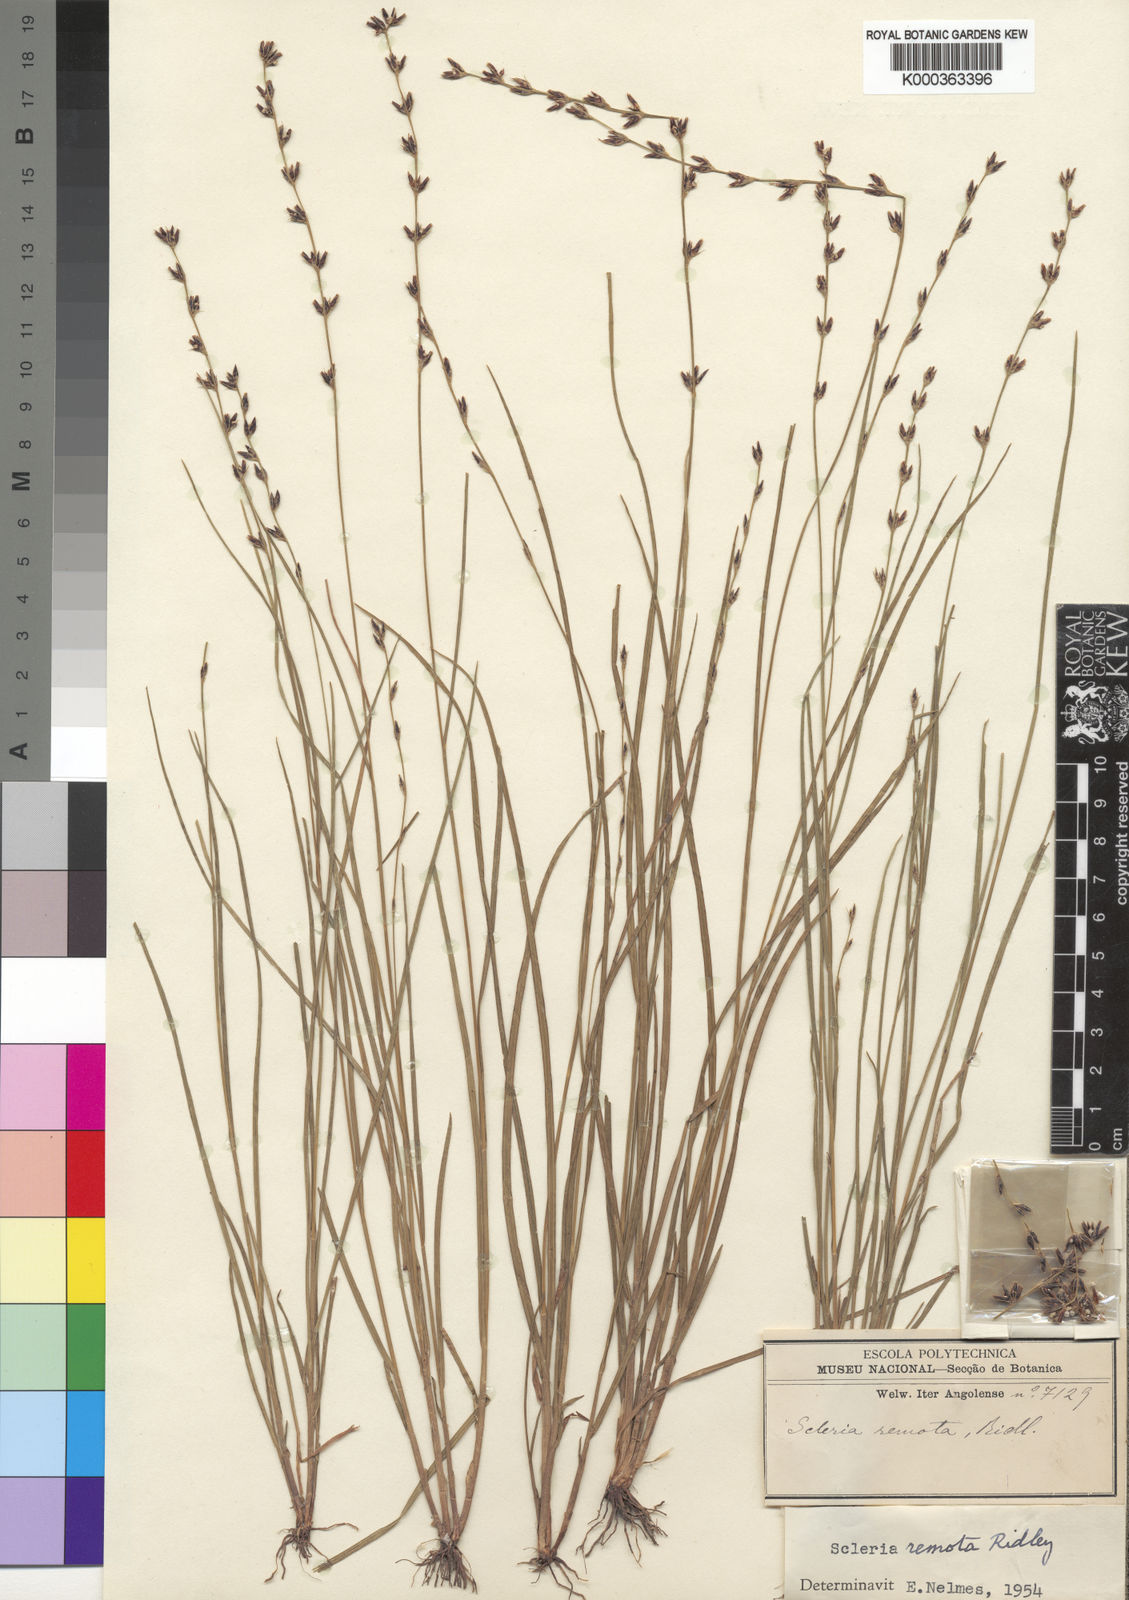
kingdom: Plantae
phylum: Tracheophyta
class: Liliopsida
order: Poales
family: Cyperaceae
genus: Scleria
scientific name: Scleria remota
